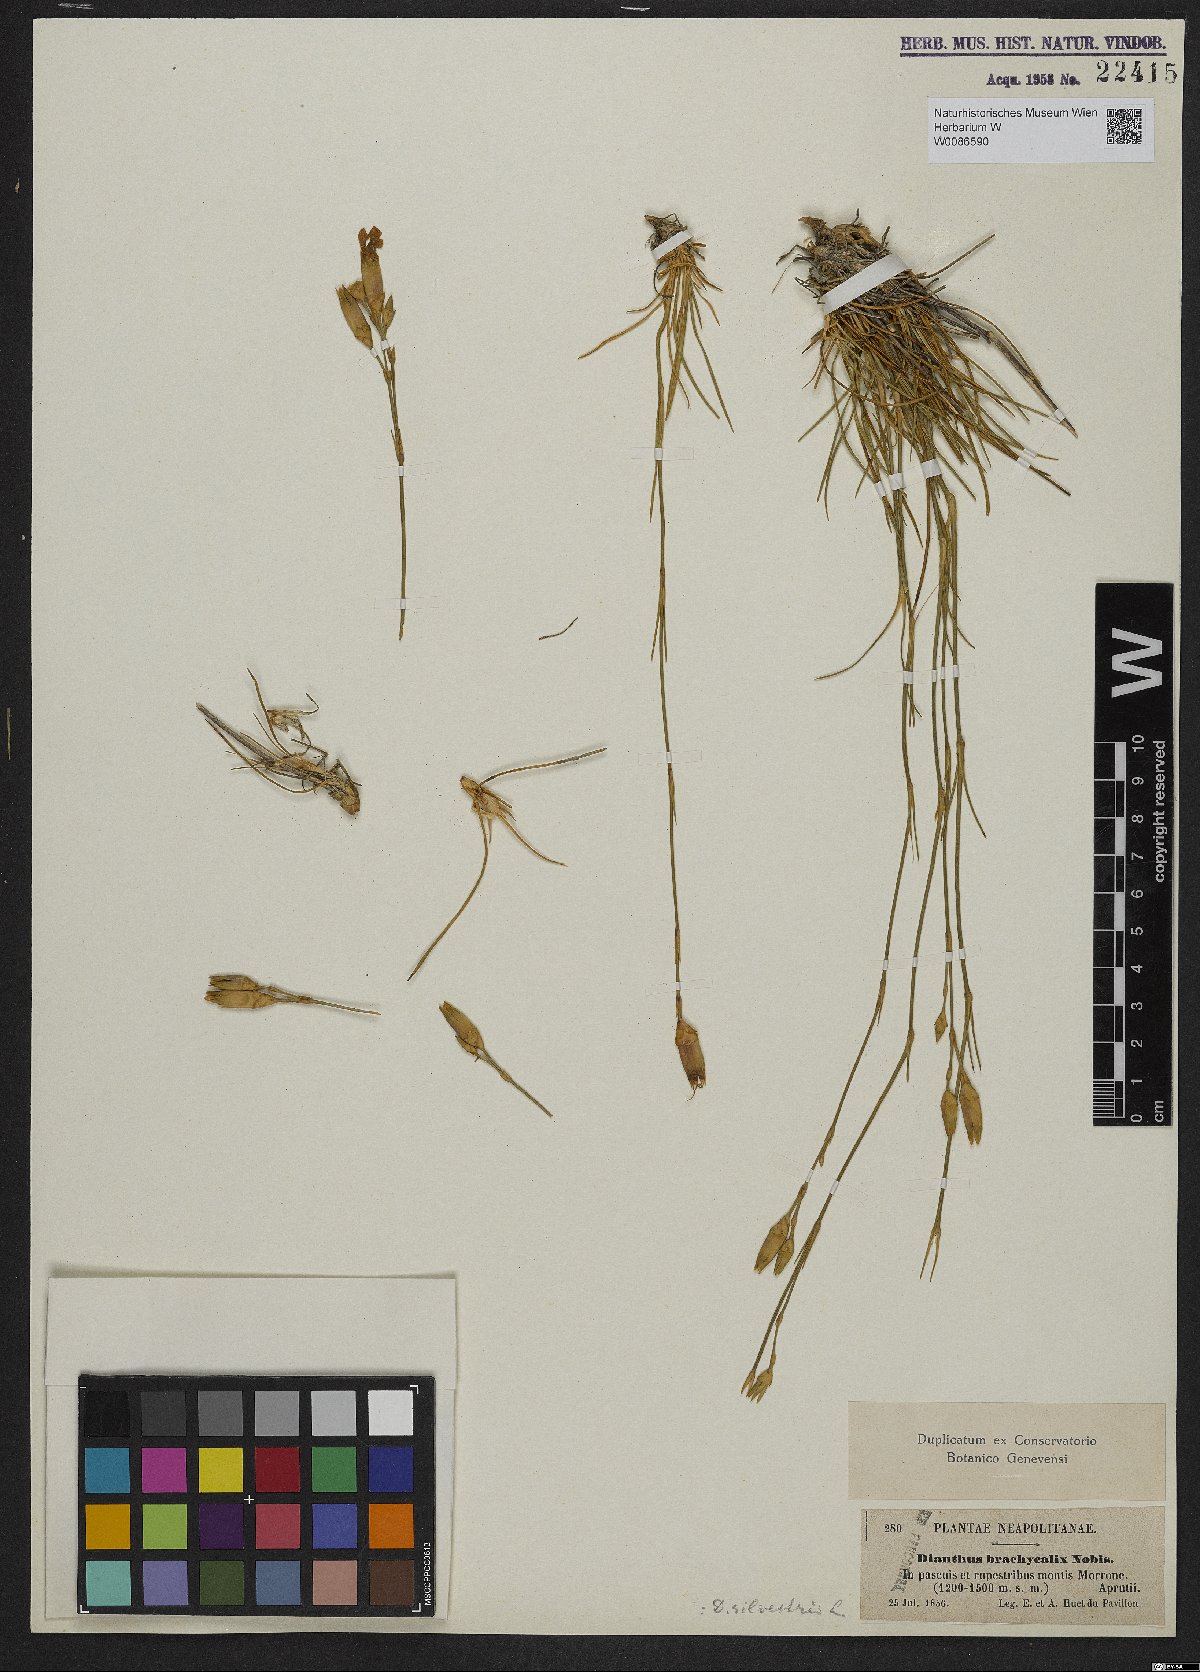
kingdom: Plantae
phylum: Tracheophyta
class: Magnoliopsida
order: Caryophyllales
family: Caryophyllaceae
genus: Dianthus
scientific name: Dianthus sylvestris
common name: Wood pink
